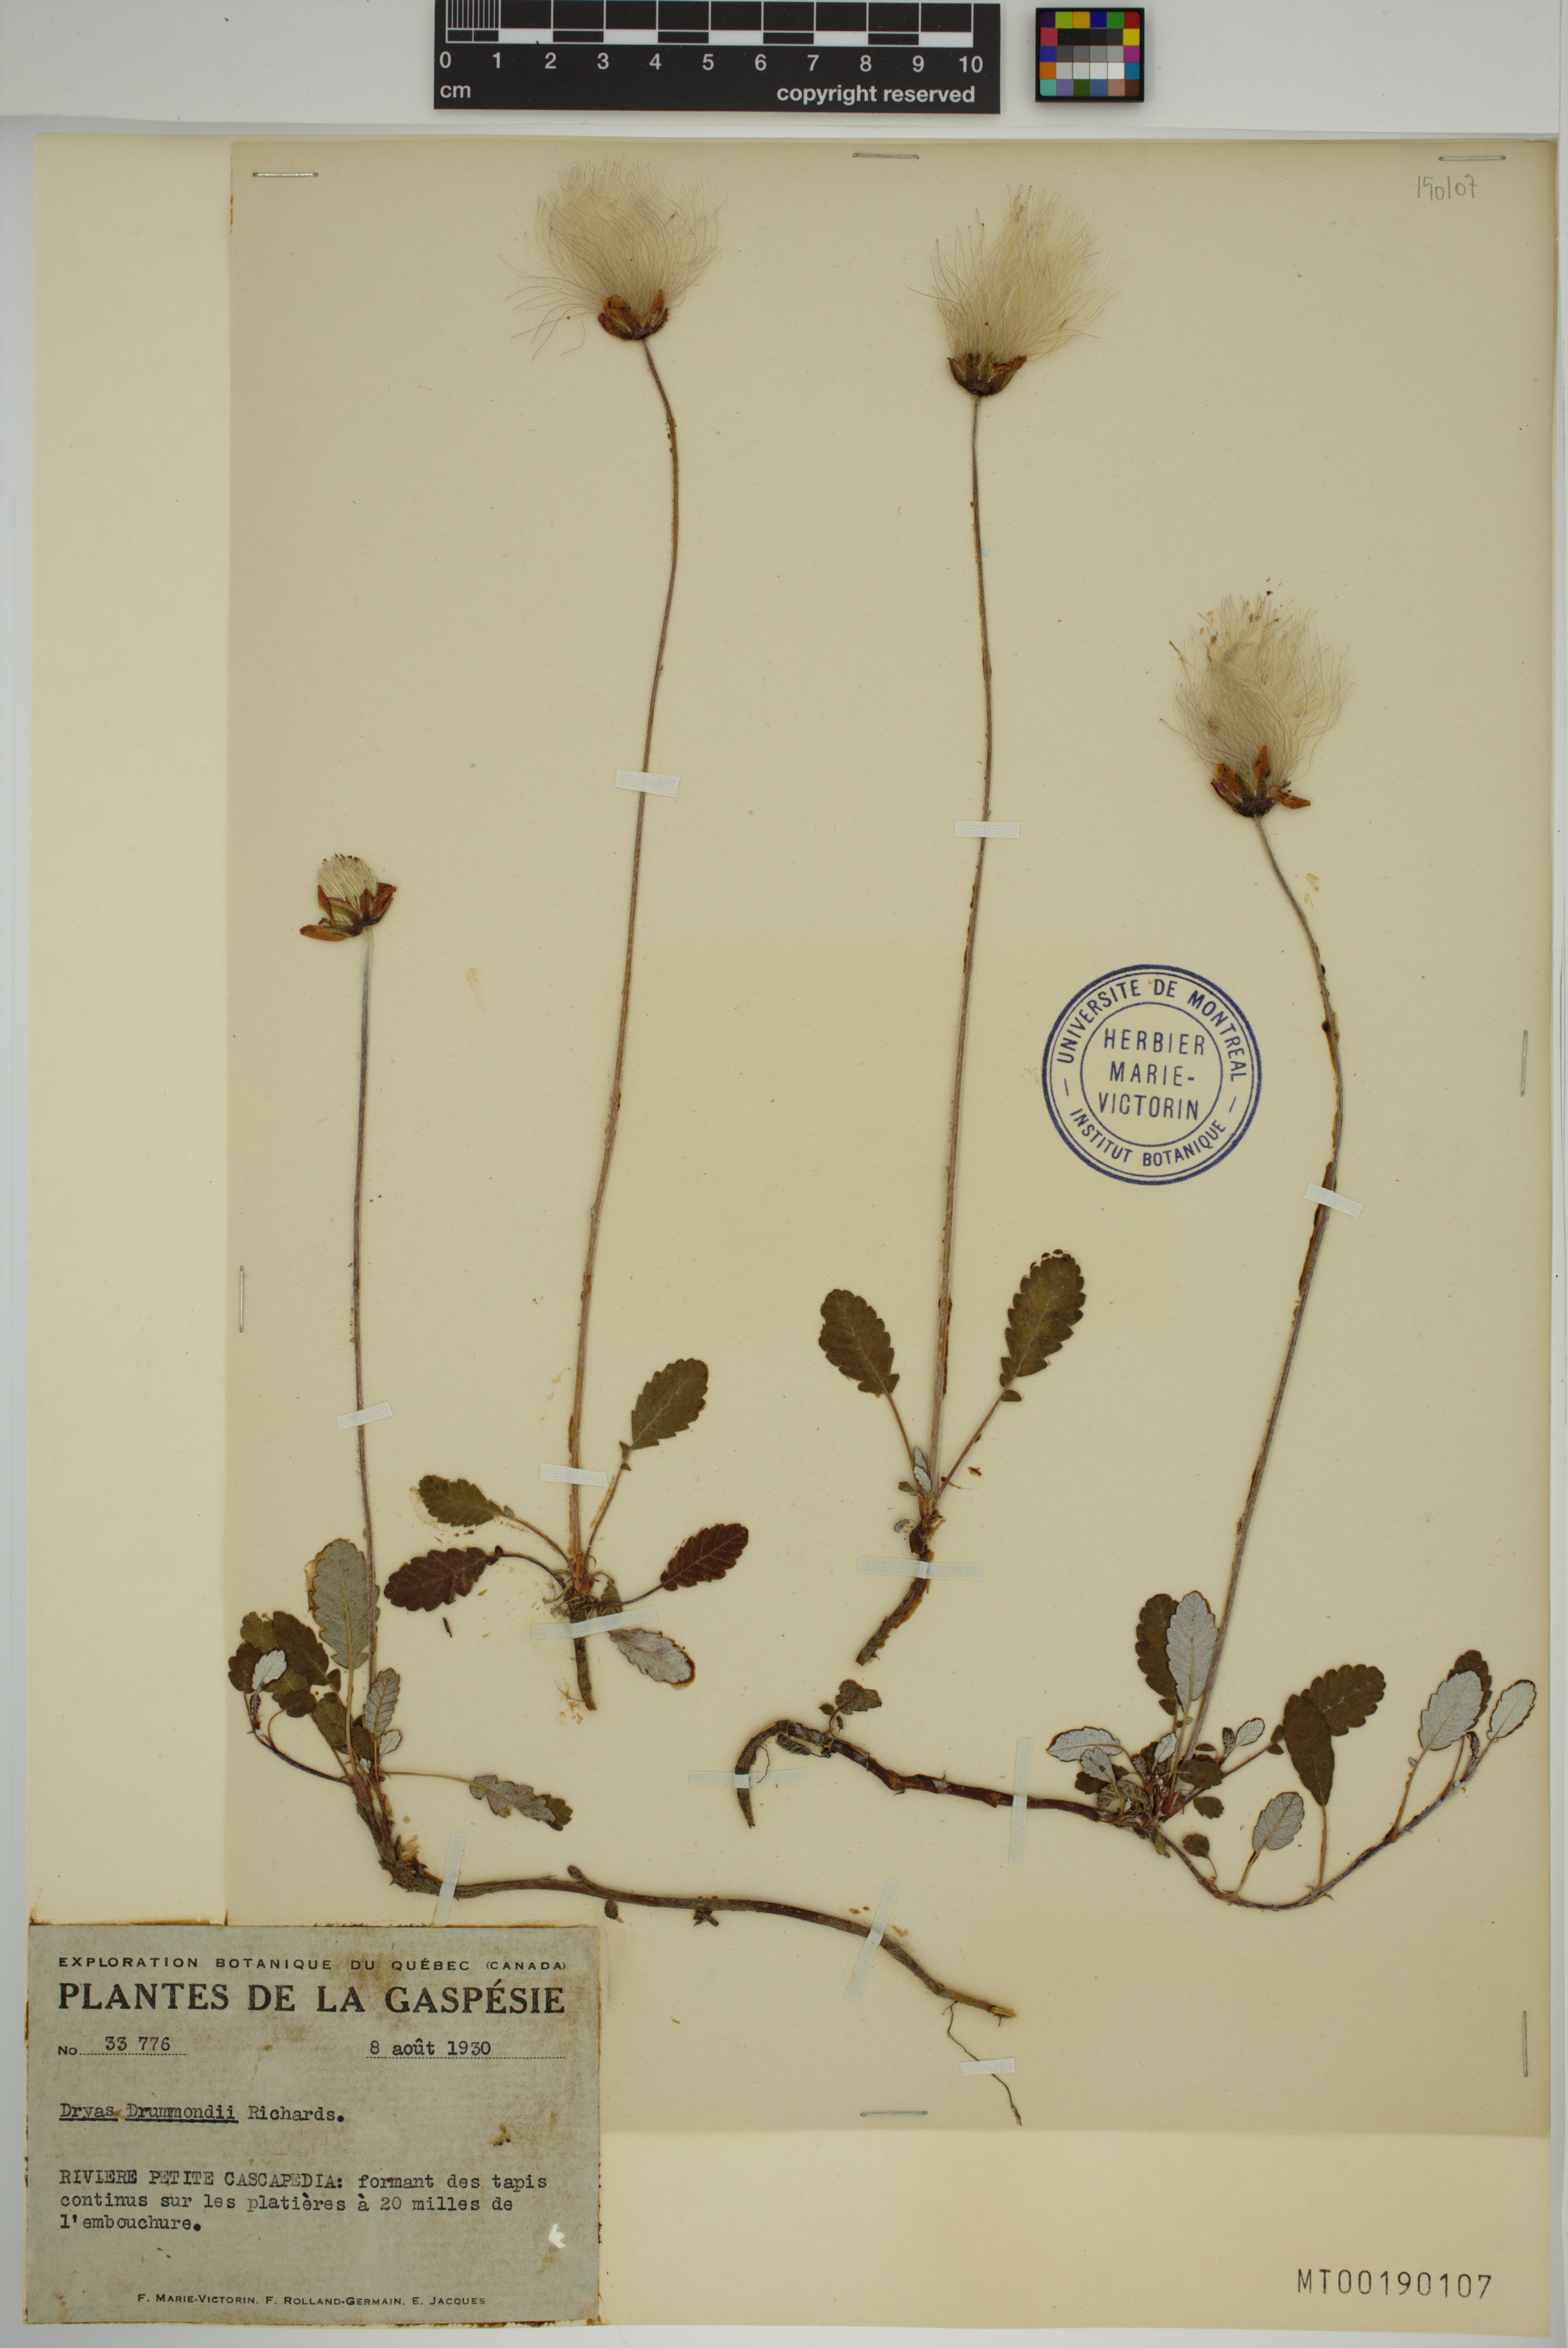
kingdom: Plantae
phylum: Tracheophyta
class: Magnoliopsida
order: Rosales
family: Rosaceae
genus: Dryas
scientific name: Dryas drummondii
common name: Drummond's dryad
